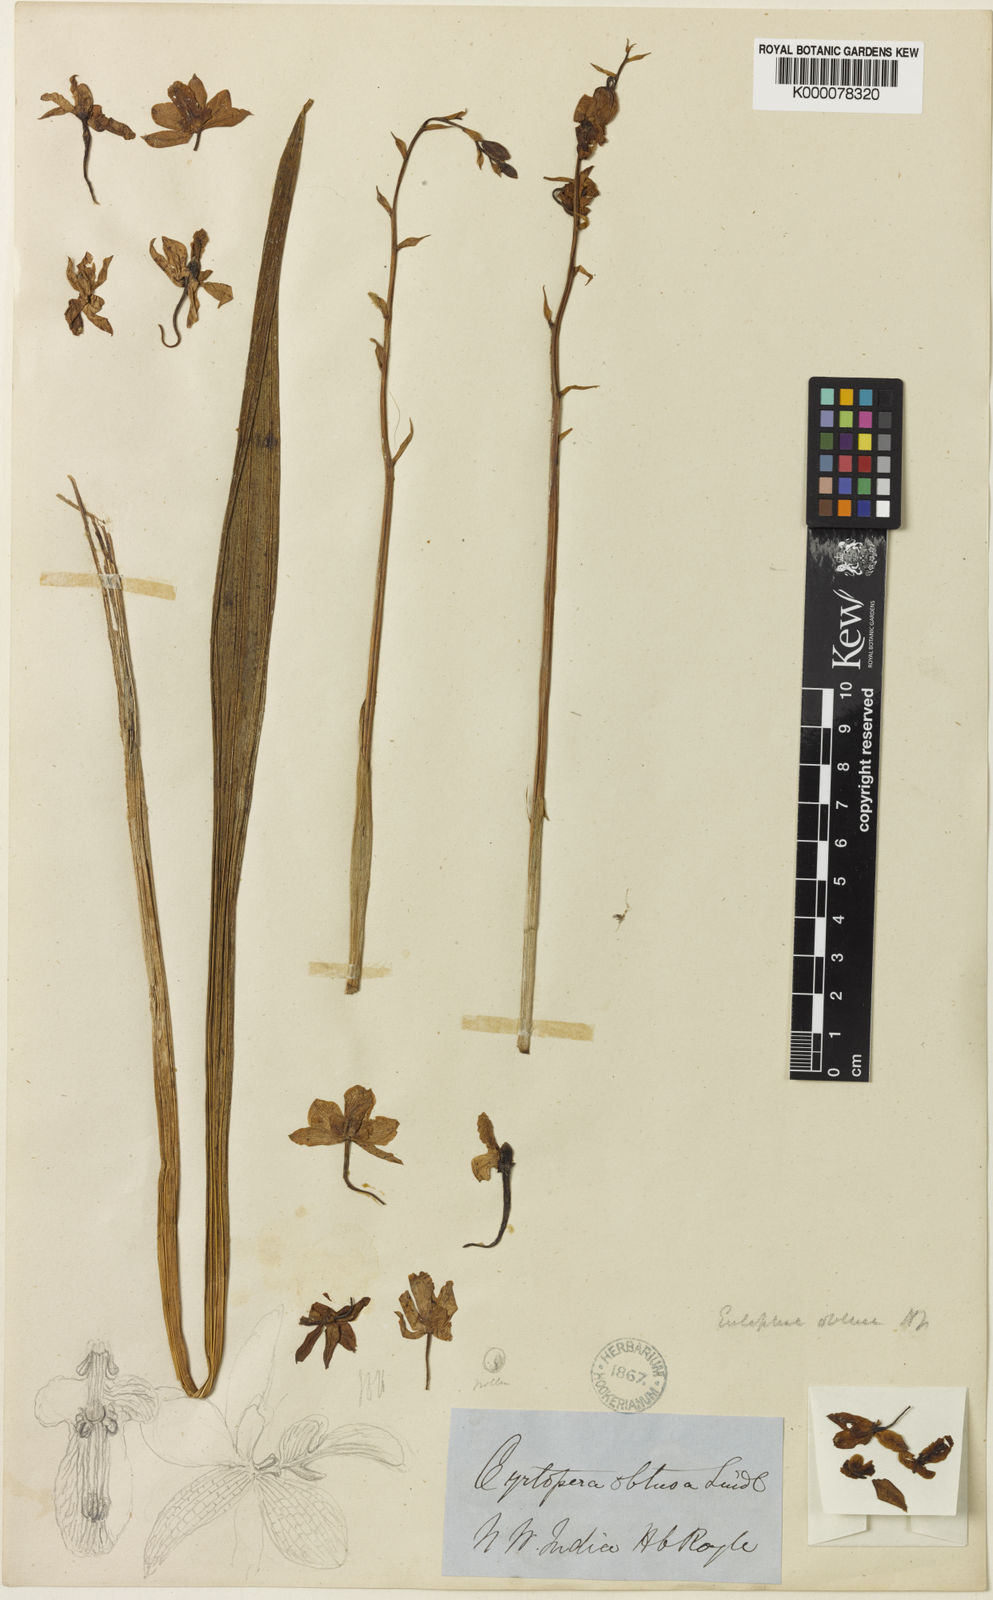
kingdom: Plantae
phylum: Tracheophyta
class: Liliopsida
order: Asparagales
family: Orchidaceae
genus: Eulophia
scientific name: Eulophia obtusa
